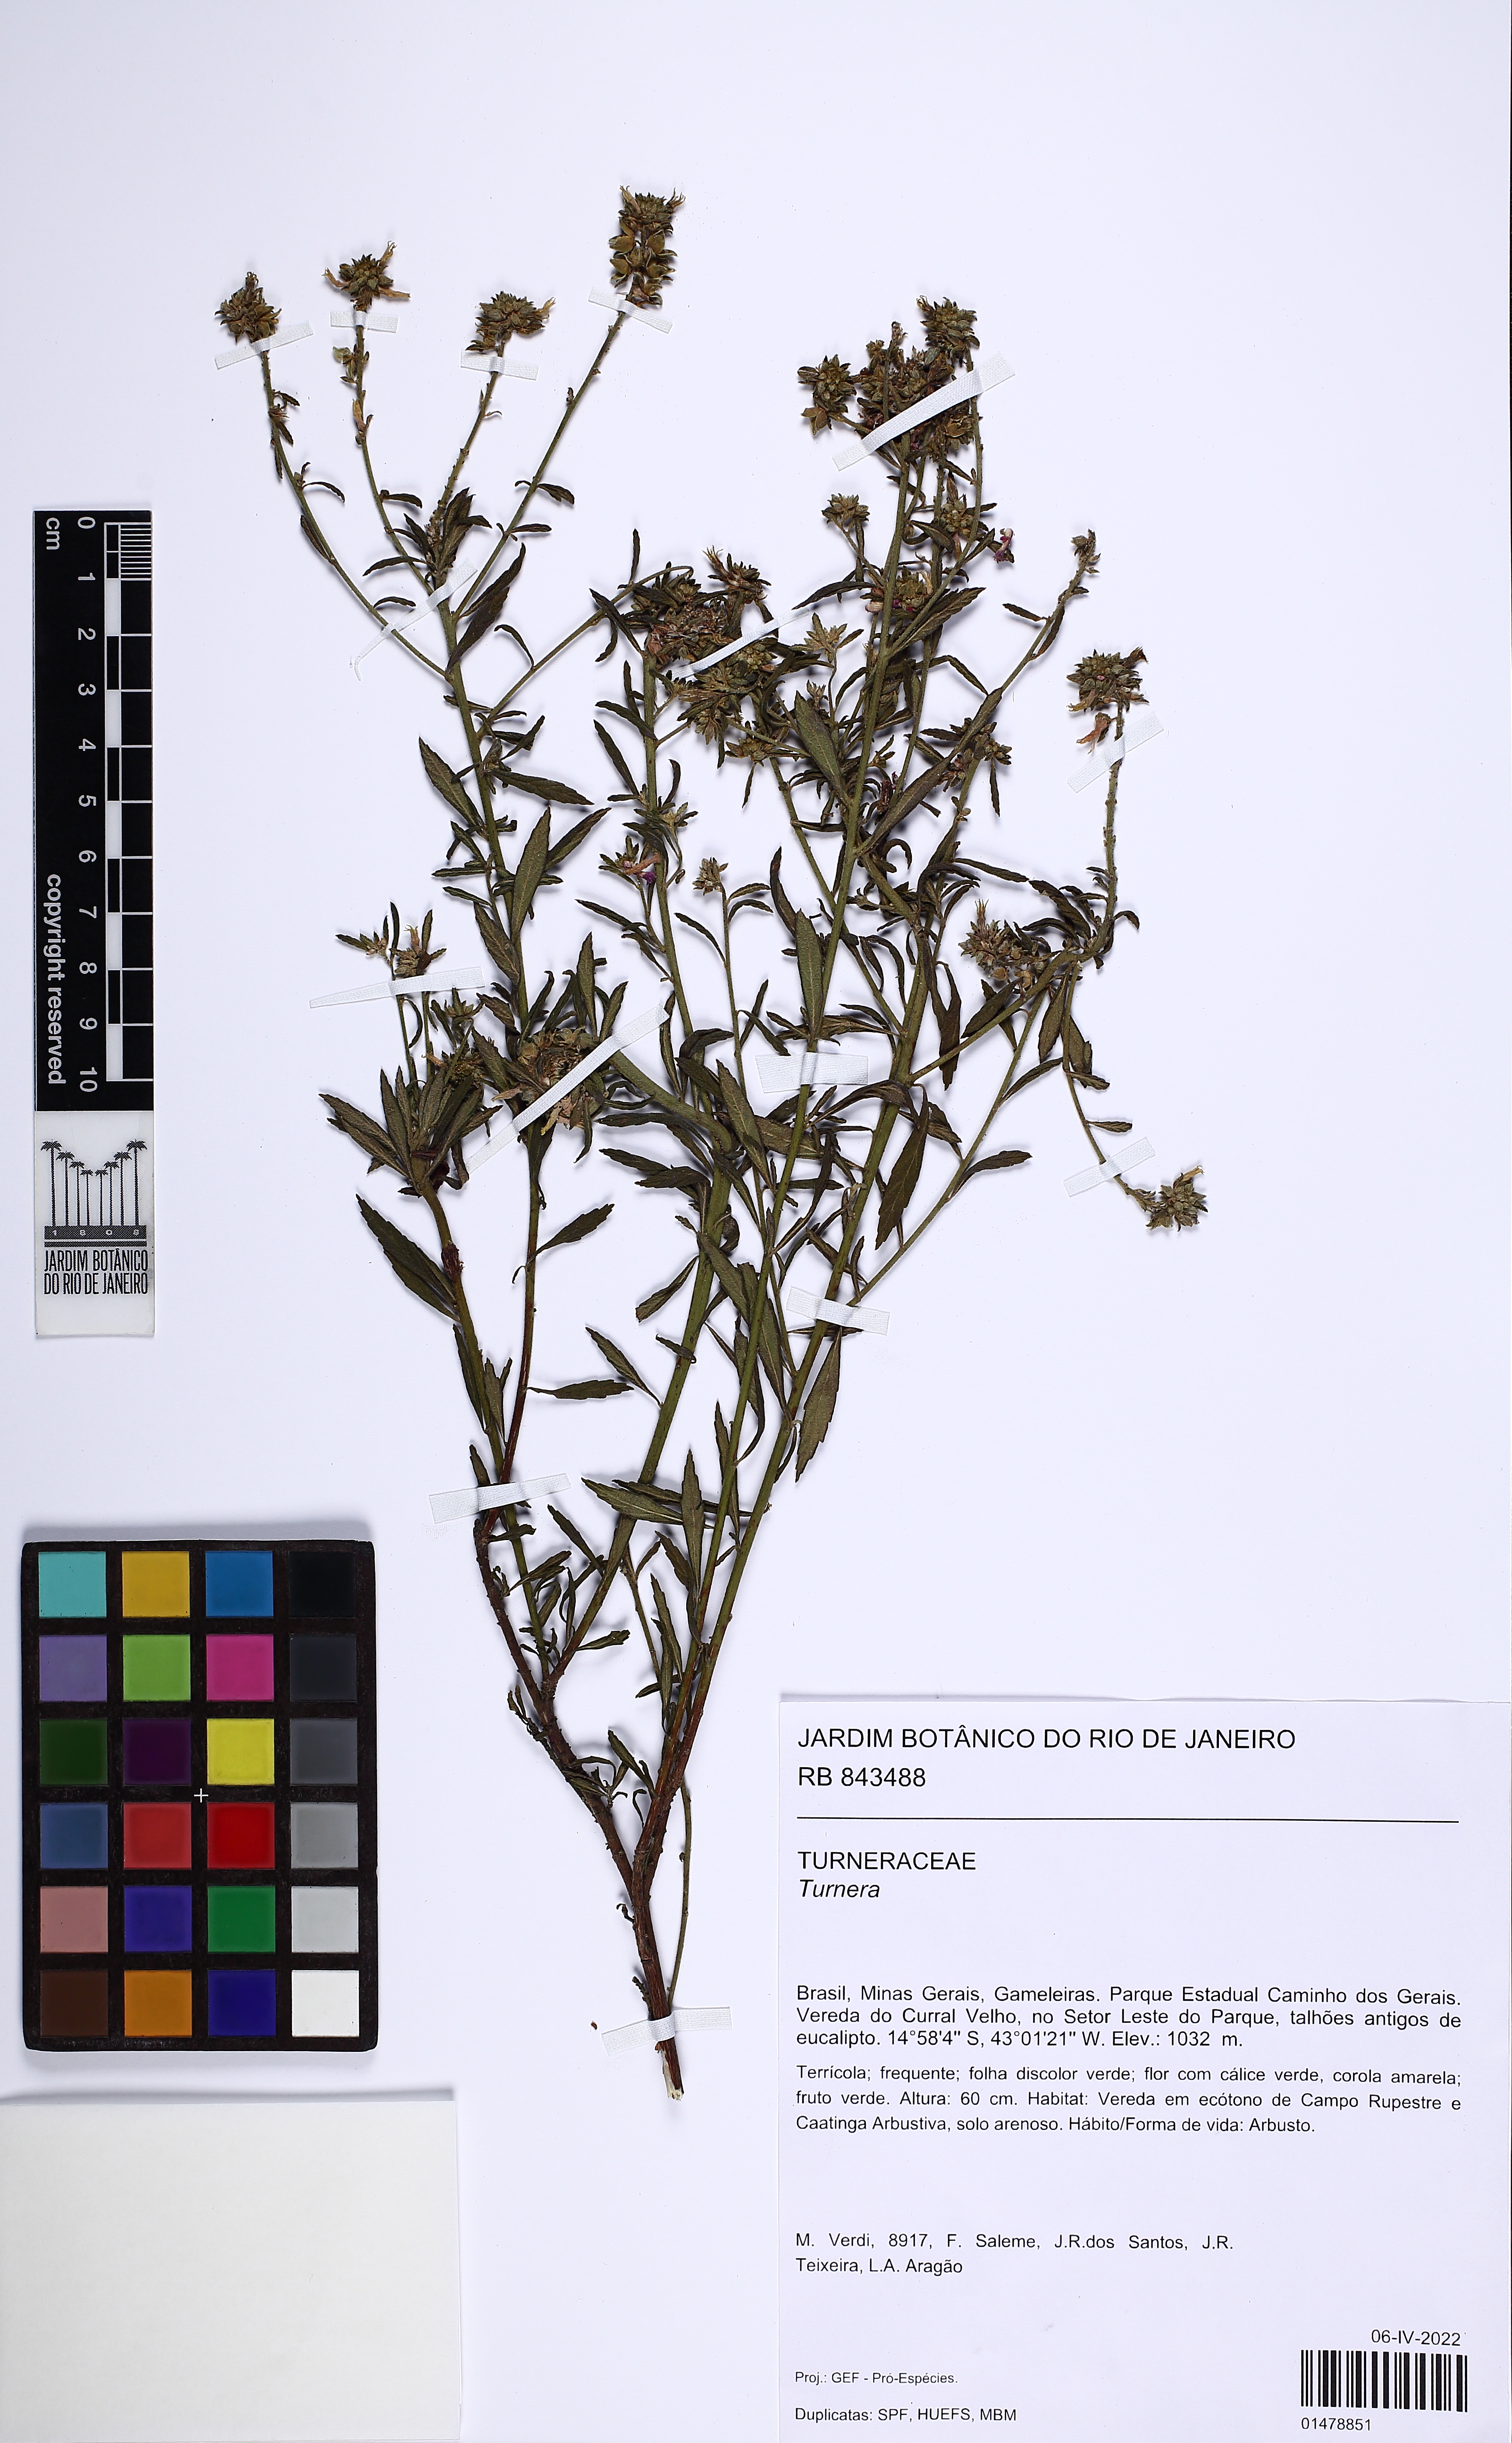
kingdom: Plantae
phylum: Tracheophyta
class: Magnoliopsida
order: Malpighiales
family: Turneraceae
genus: Turnera
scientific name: Turnera
